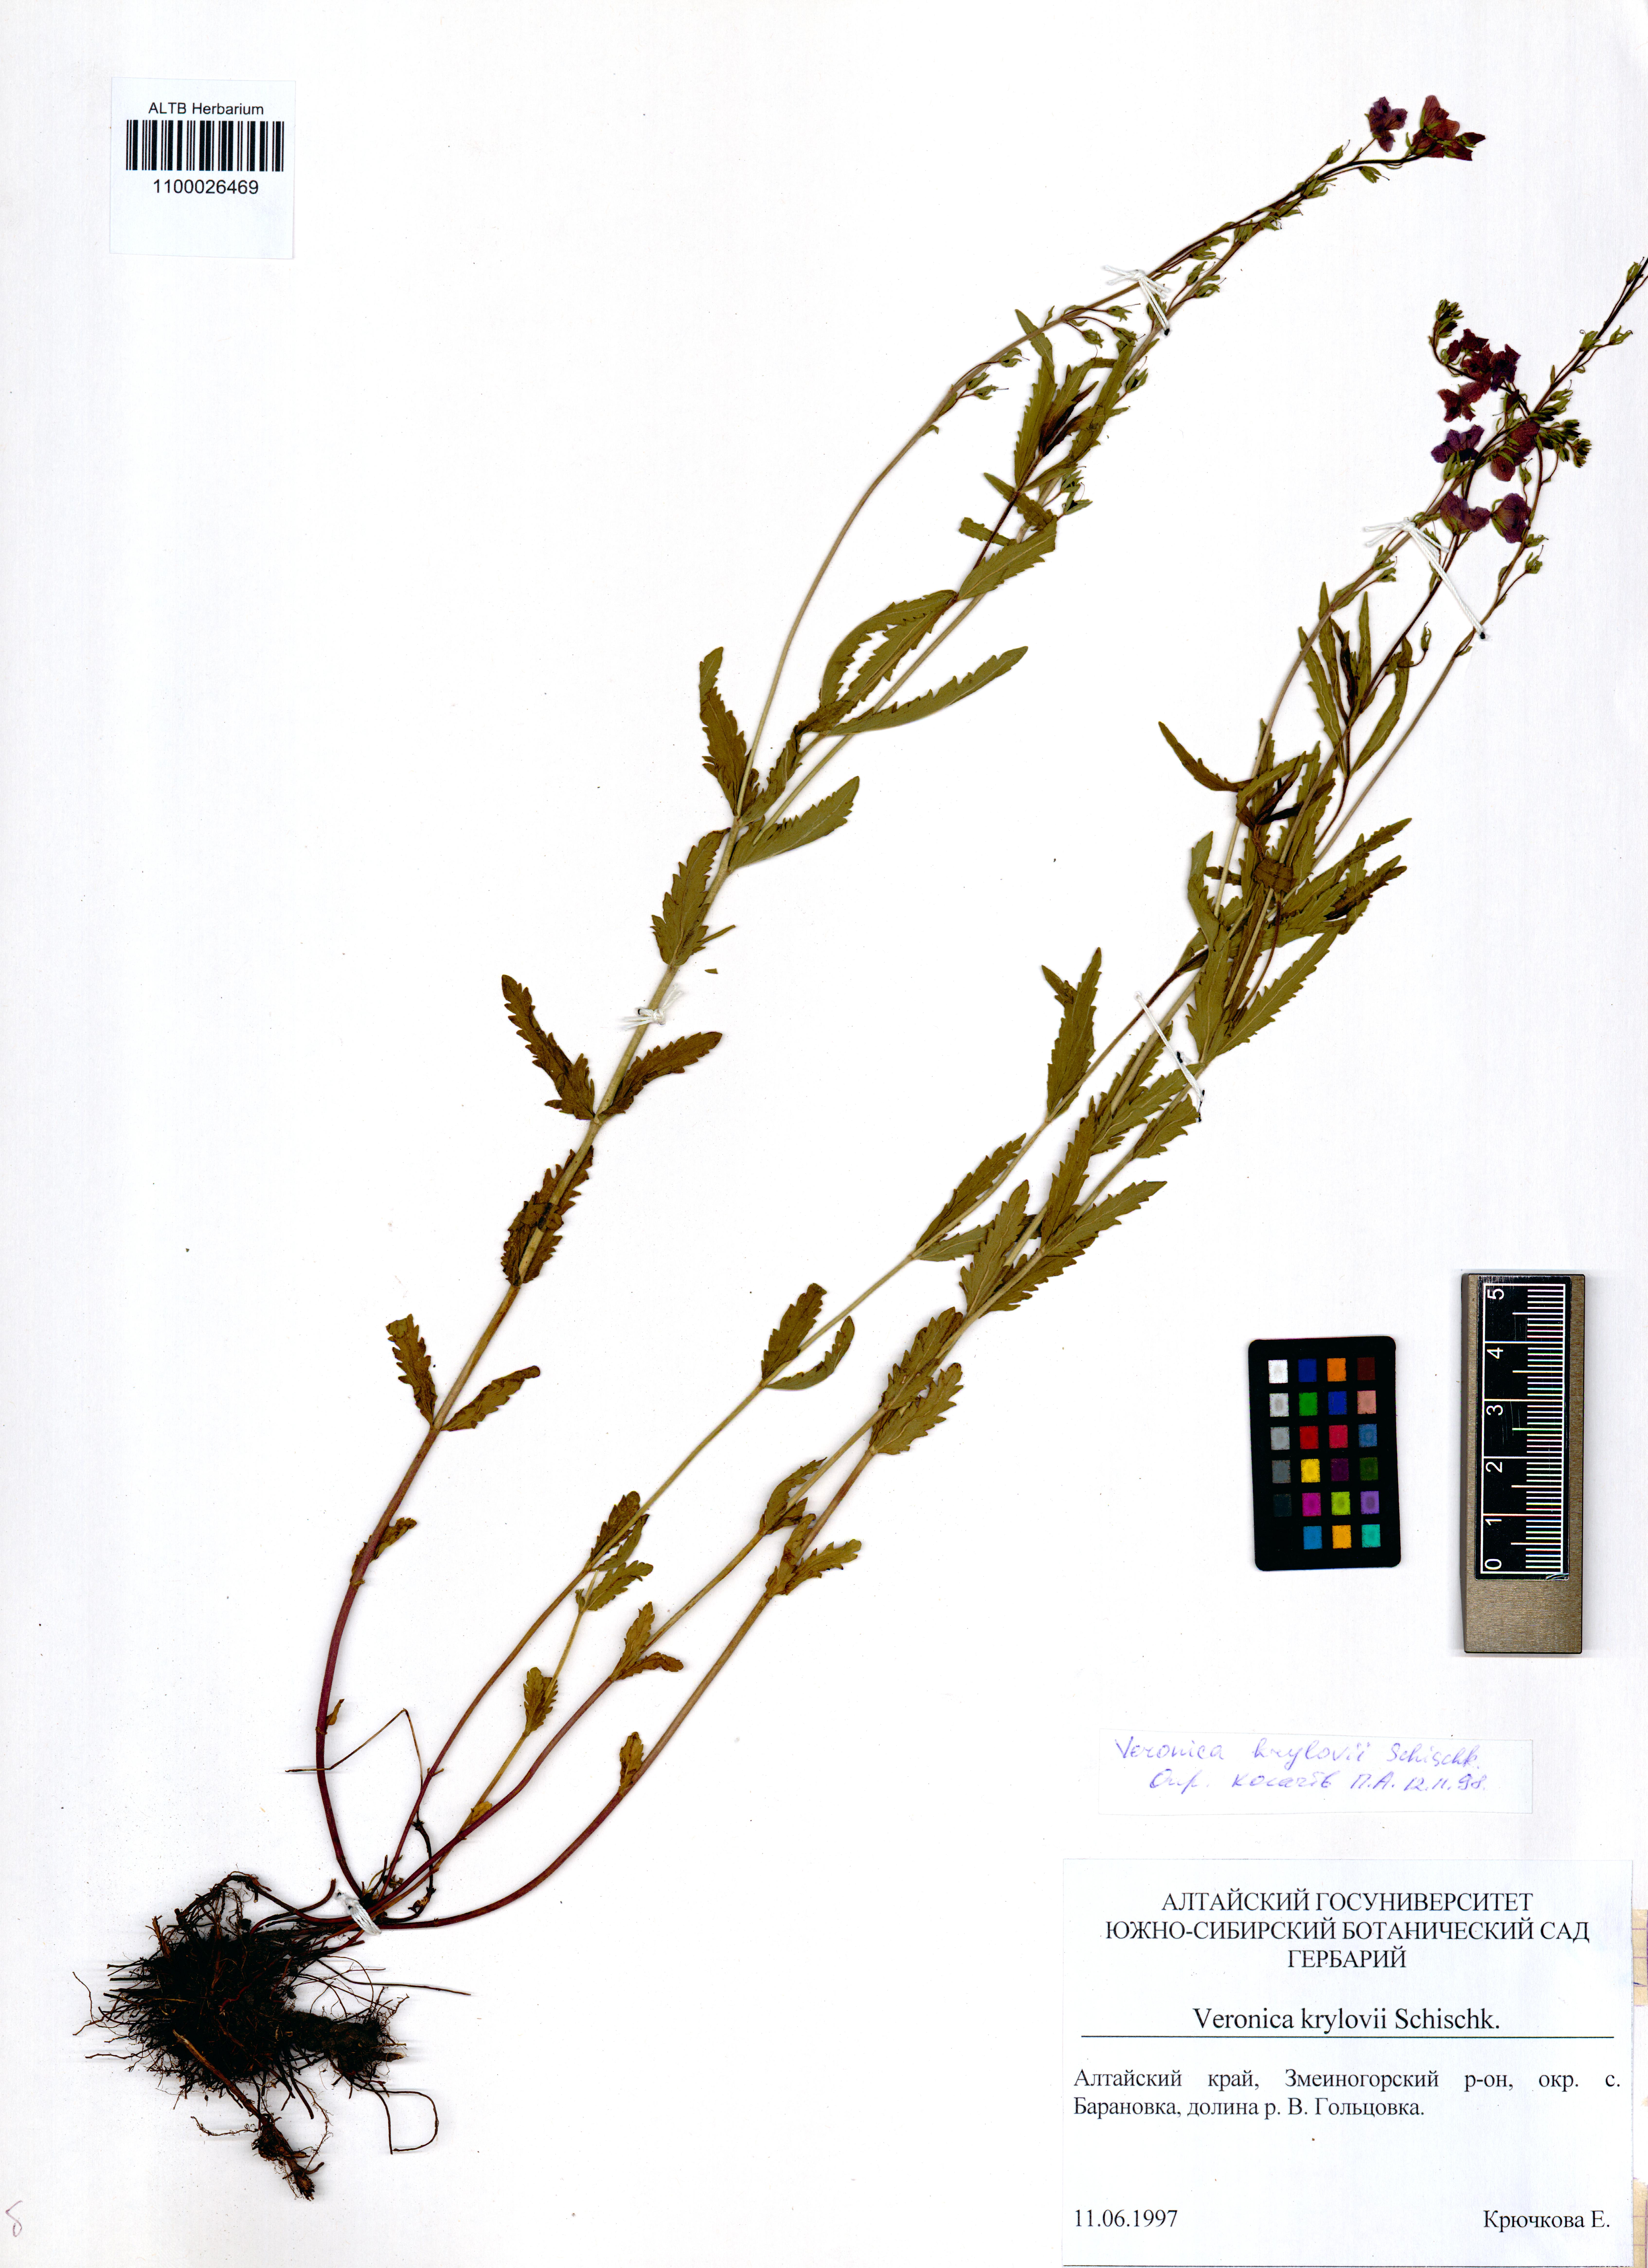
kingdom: Plantae
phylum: Tracheophyta
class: Magnoliopsida
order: Lamiales
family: Plantaginaceae
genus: Veronica
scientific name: Veronica krylovii
